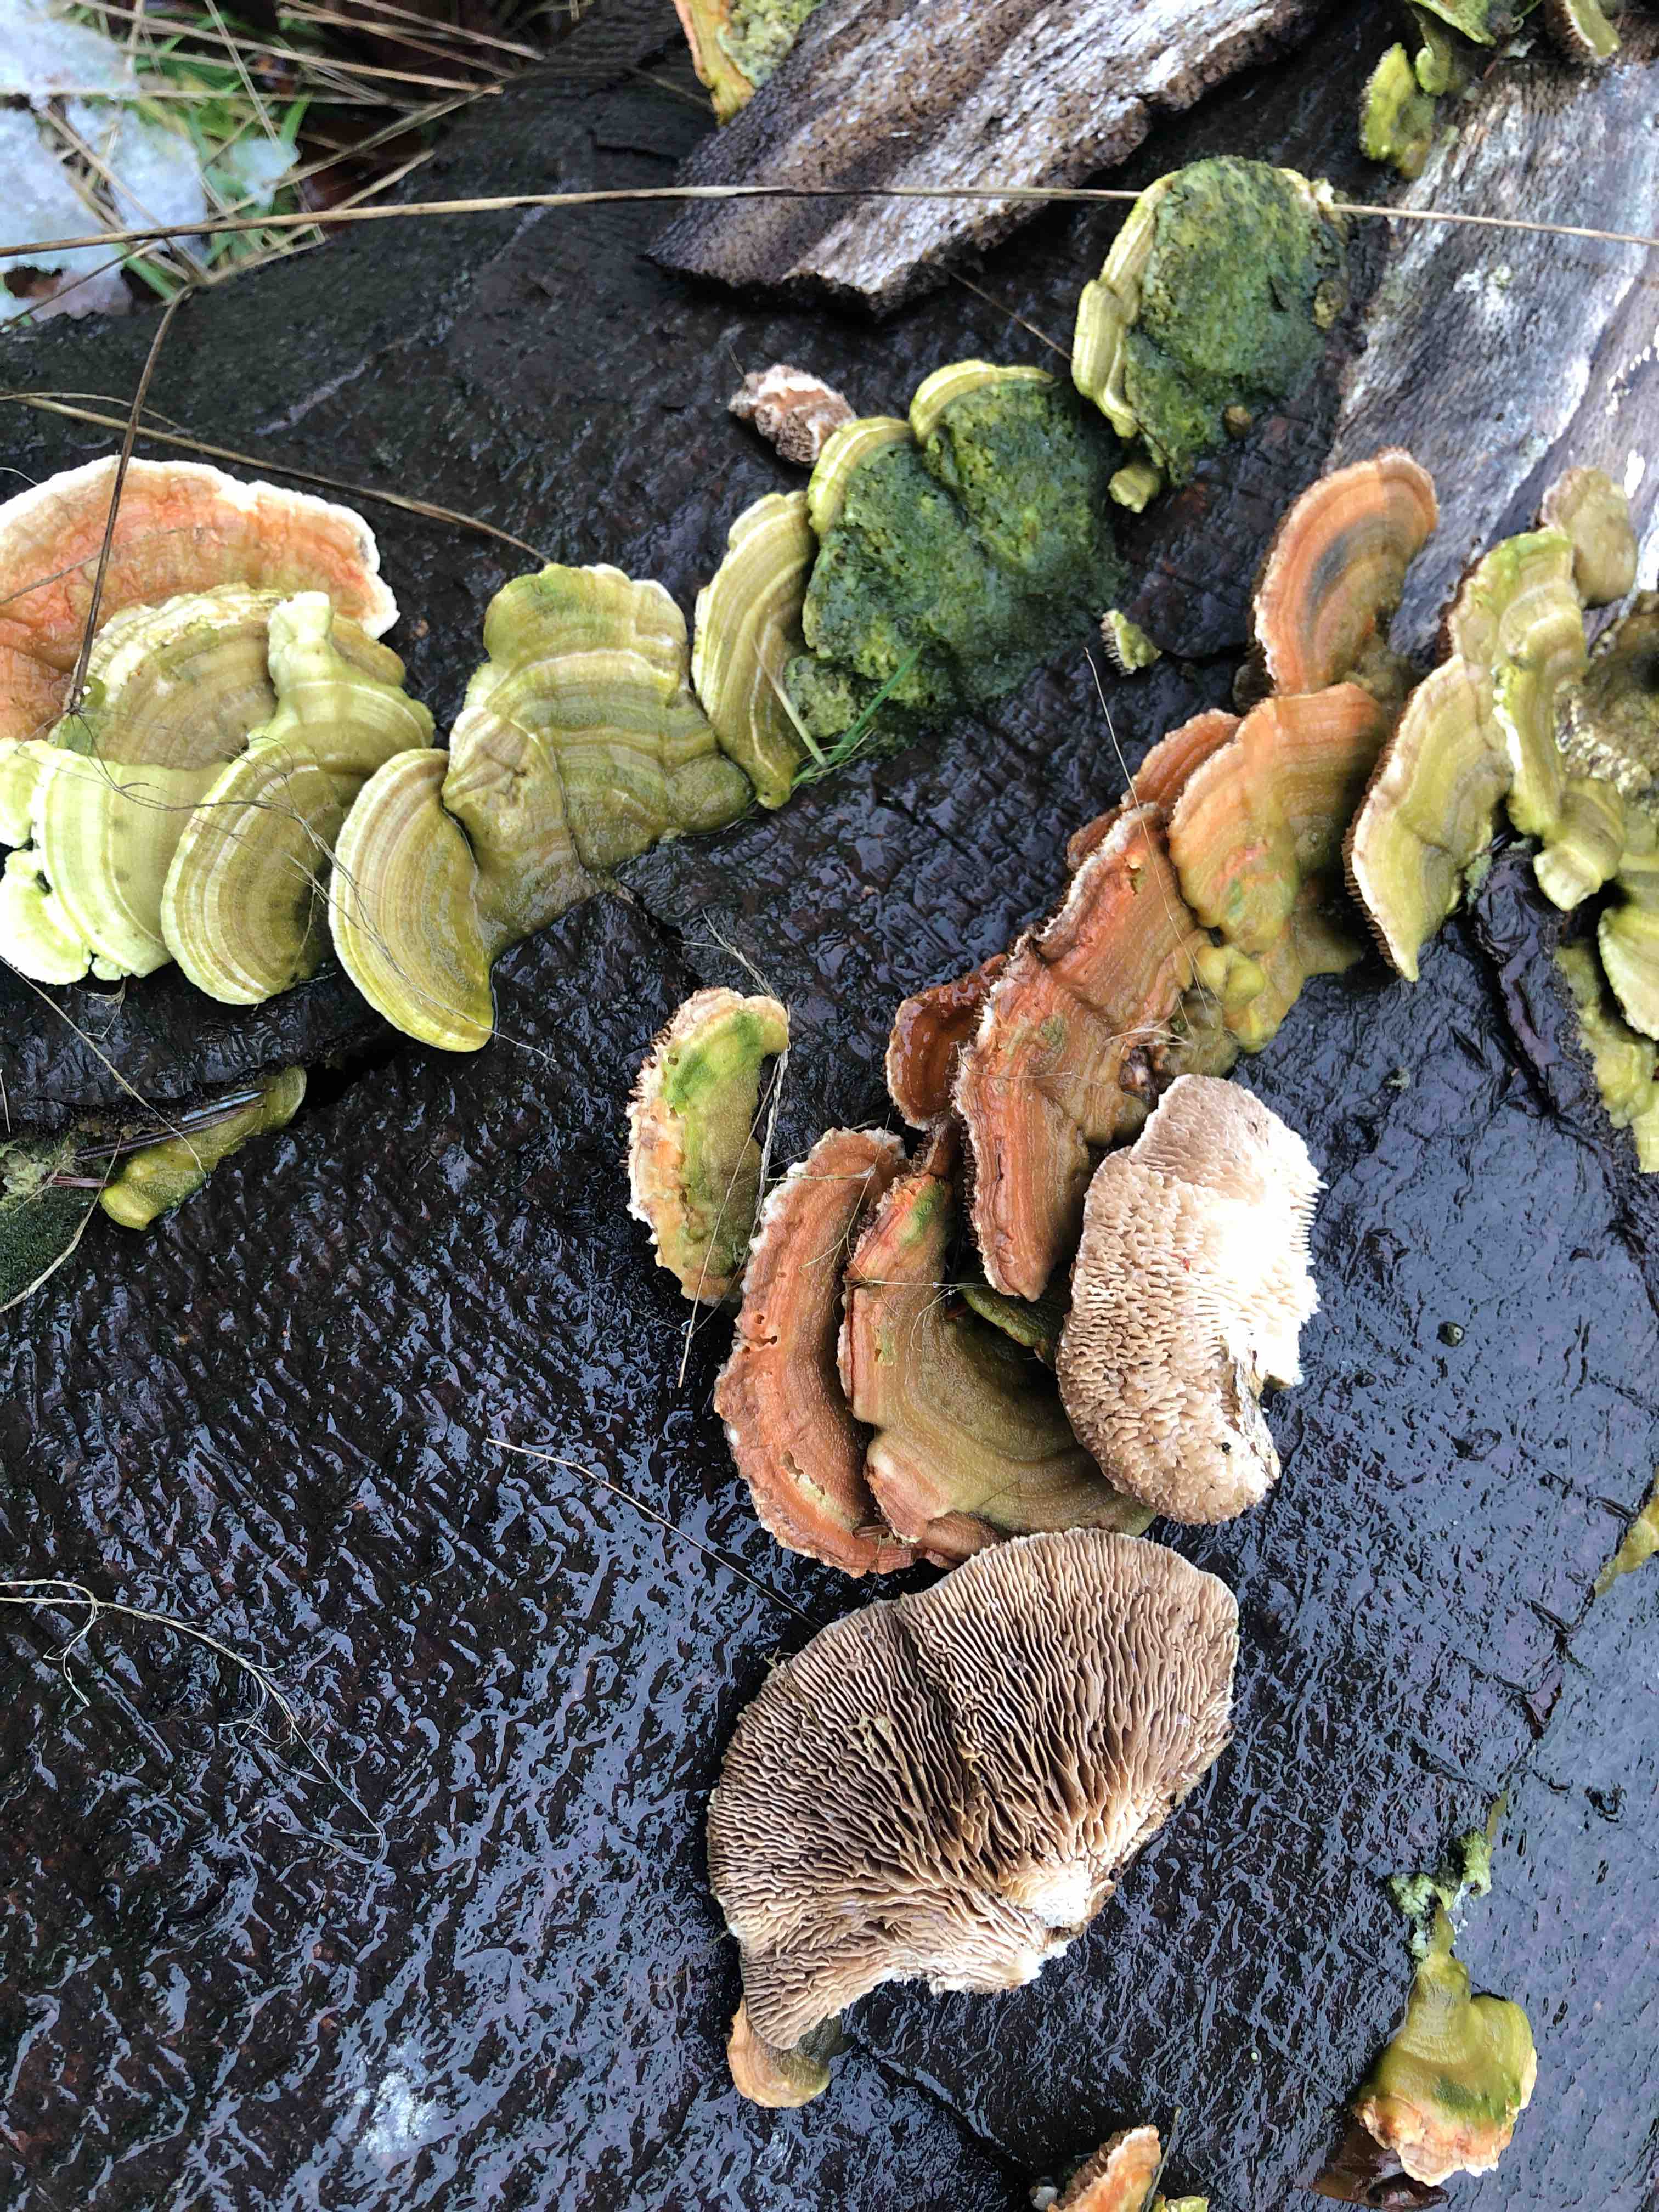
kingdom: Fungi
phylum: Basidiomycota
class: Agaricomycetes
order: Polyporales
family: Polyporaceae
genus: Lenzites
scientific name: Lenzites betulinus
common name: birke-læderporesvamp
